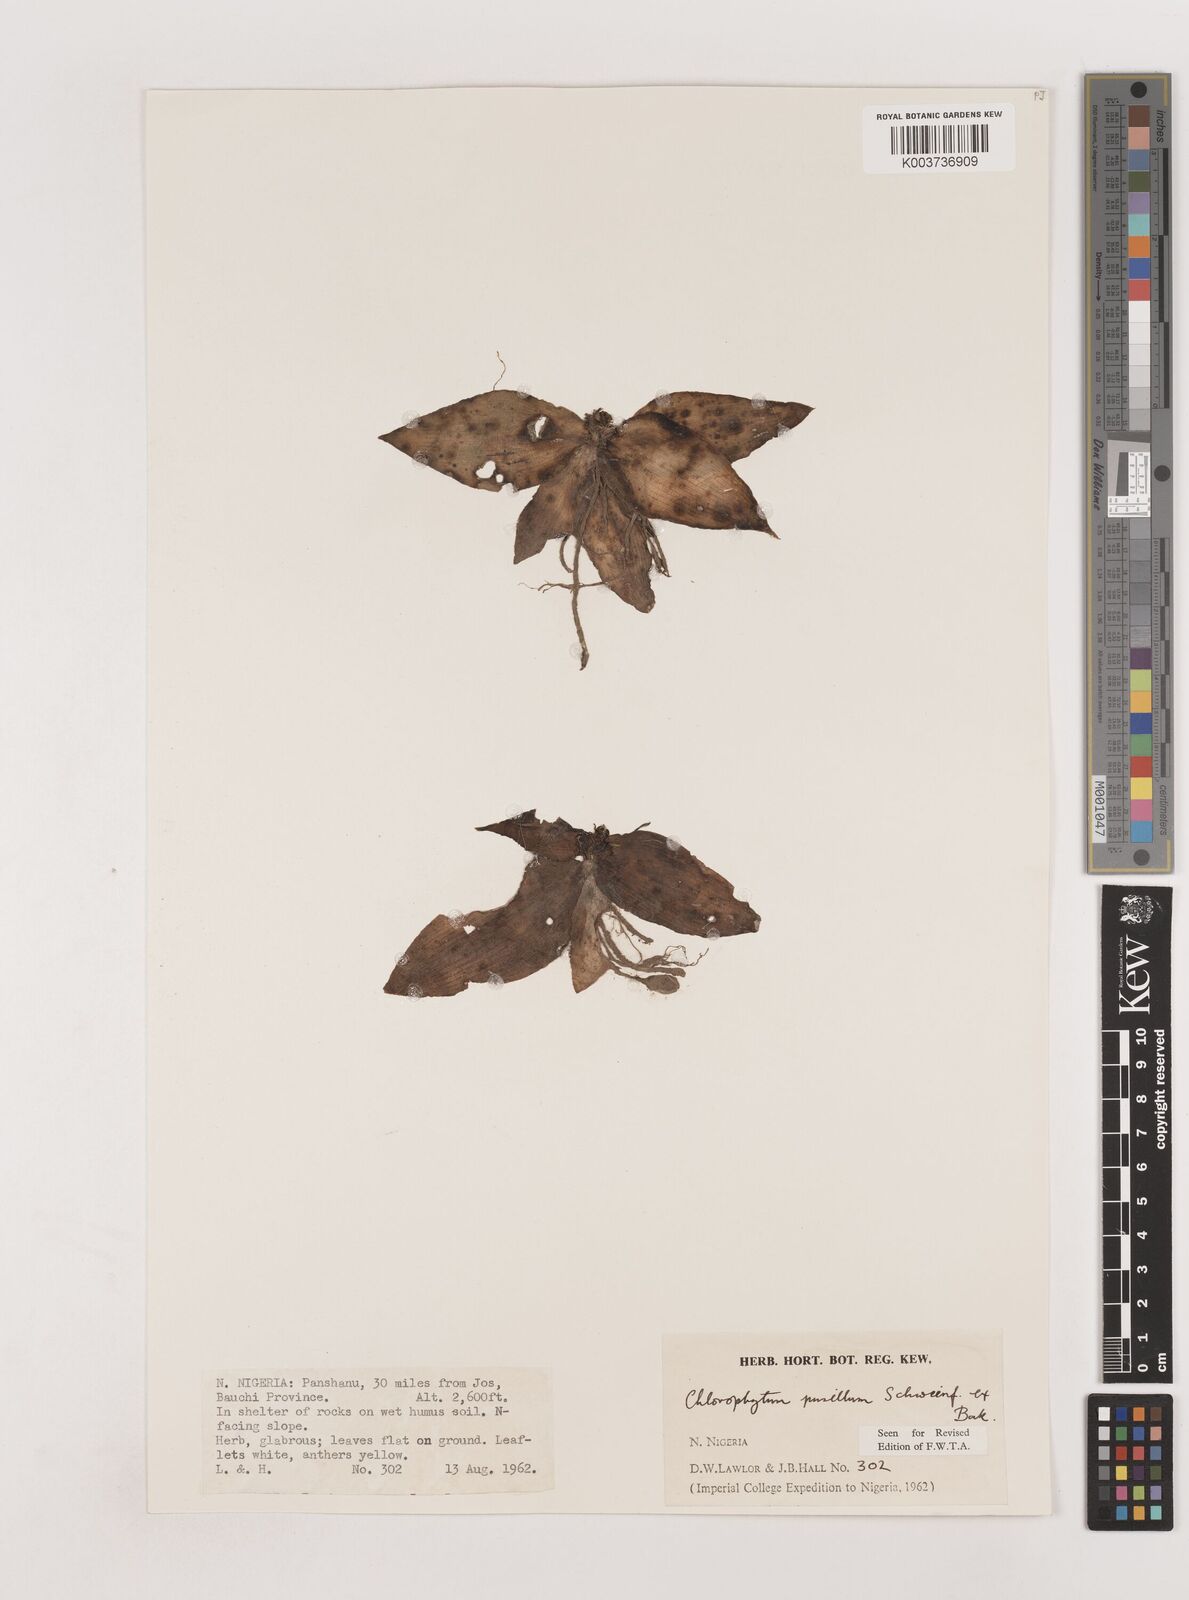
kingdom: Plantae
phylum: Tracheophyta
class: Liliopsida
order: Asparagales
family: Asparagaceae
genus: Chlorophytum
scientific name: Chlorophytum pusillum
